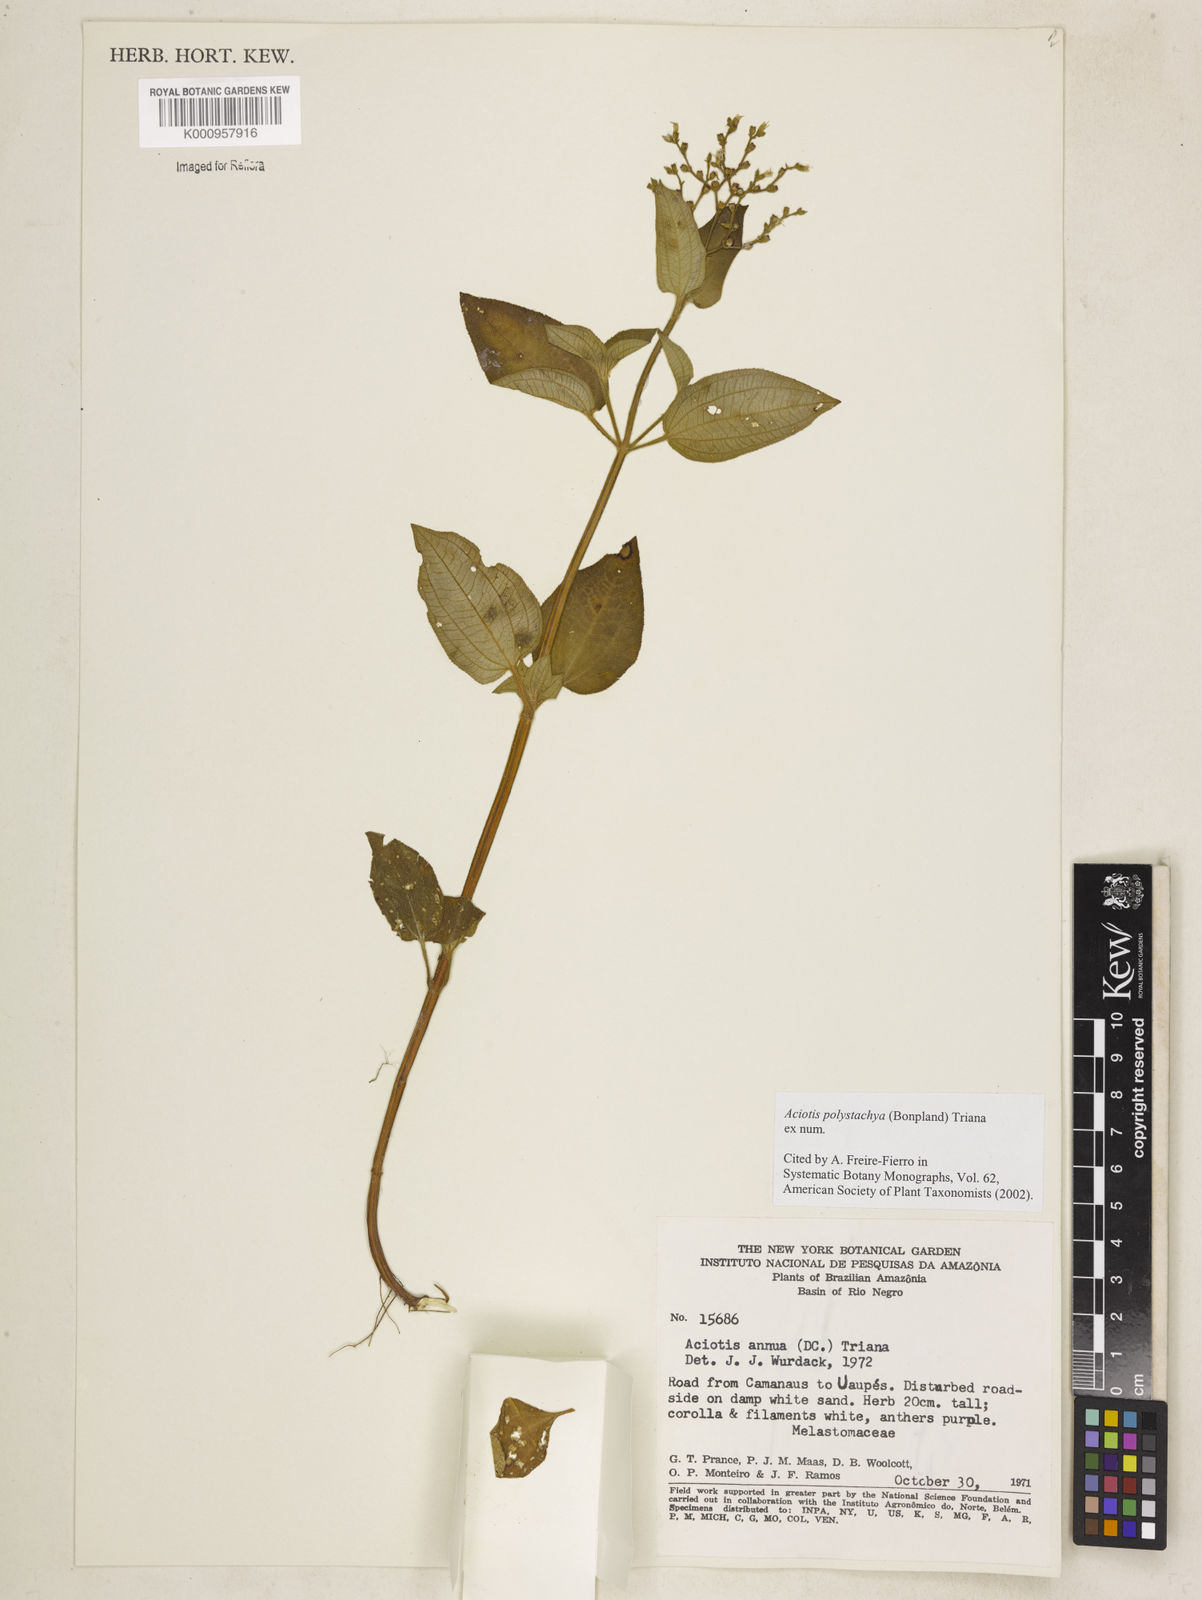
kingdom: Plantae
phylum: Tracheophyta
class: Magnoliopsida
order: Myrtales
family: Melastomataceae
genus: Aciotis
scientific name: Aciotis polystachya
